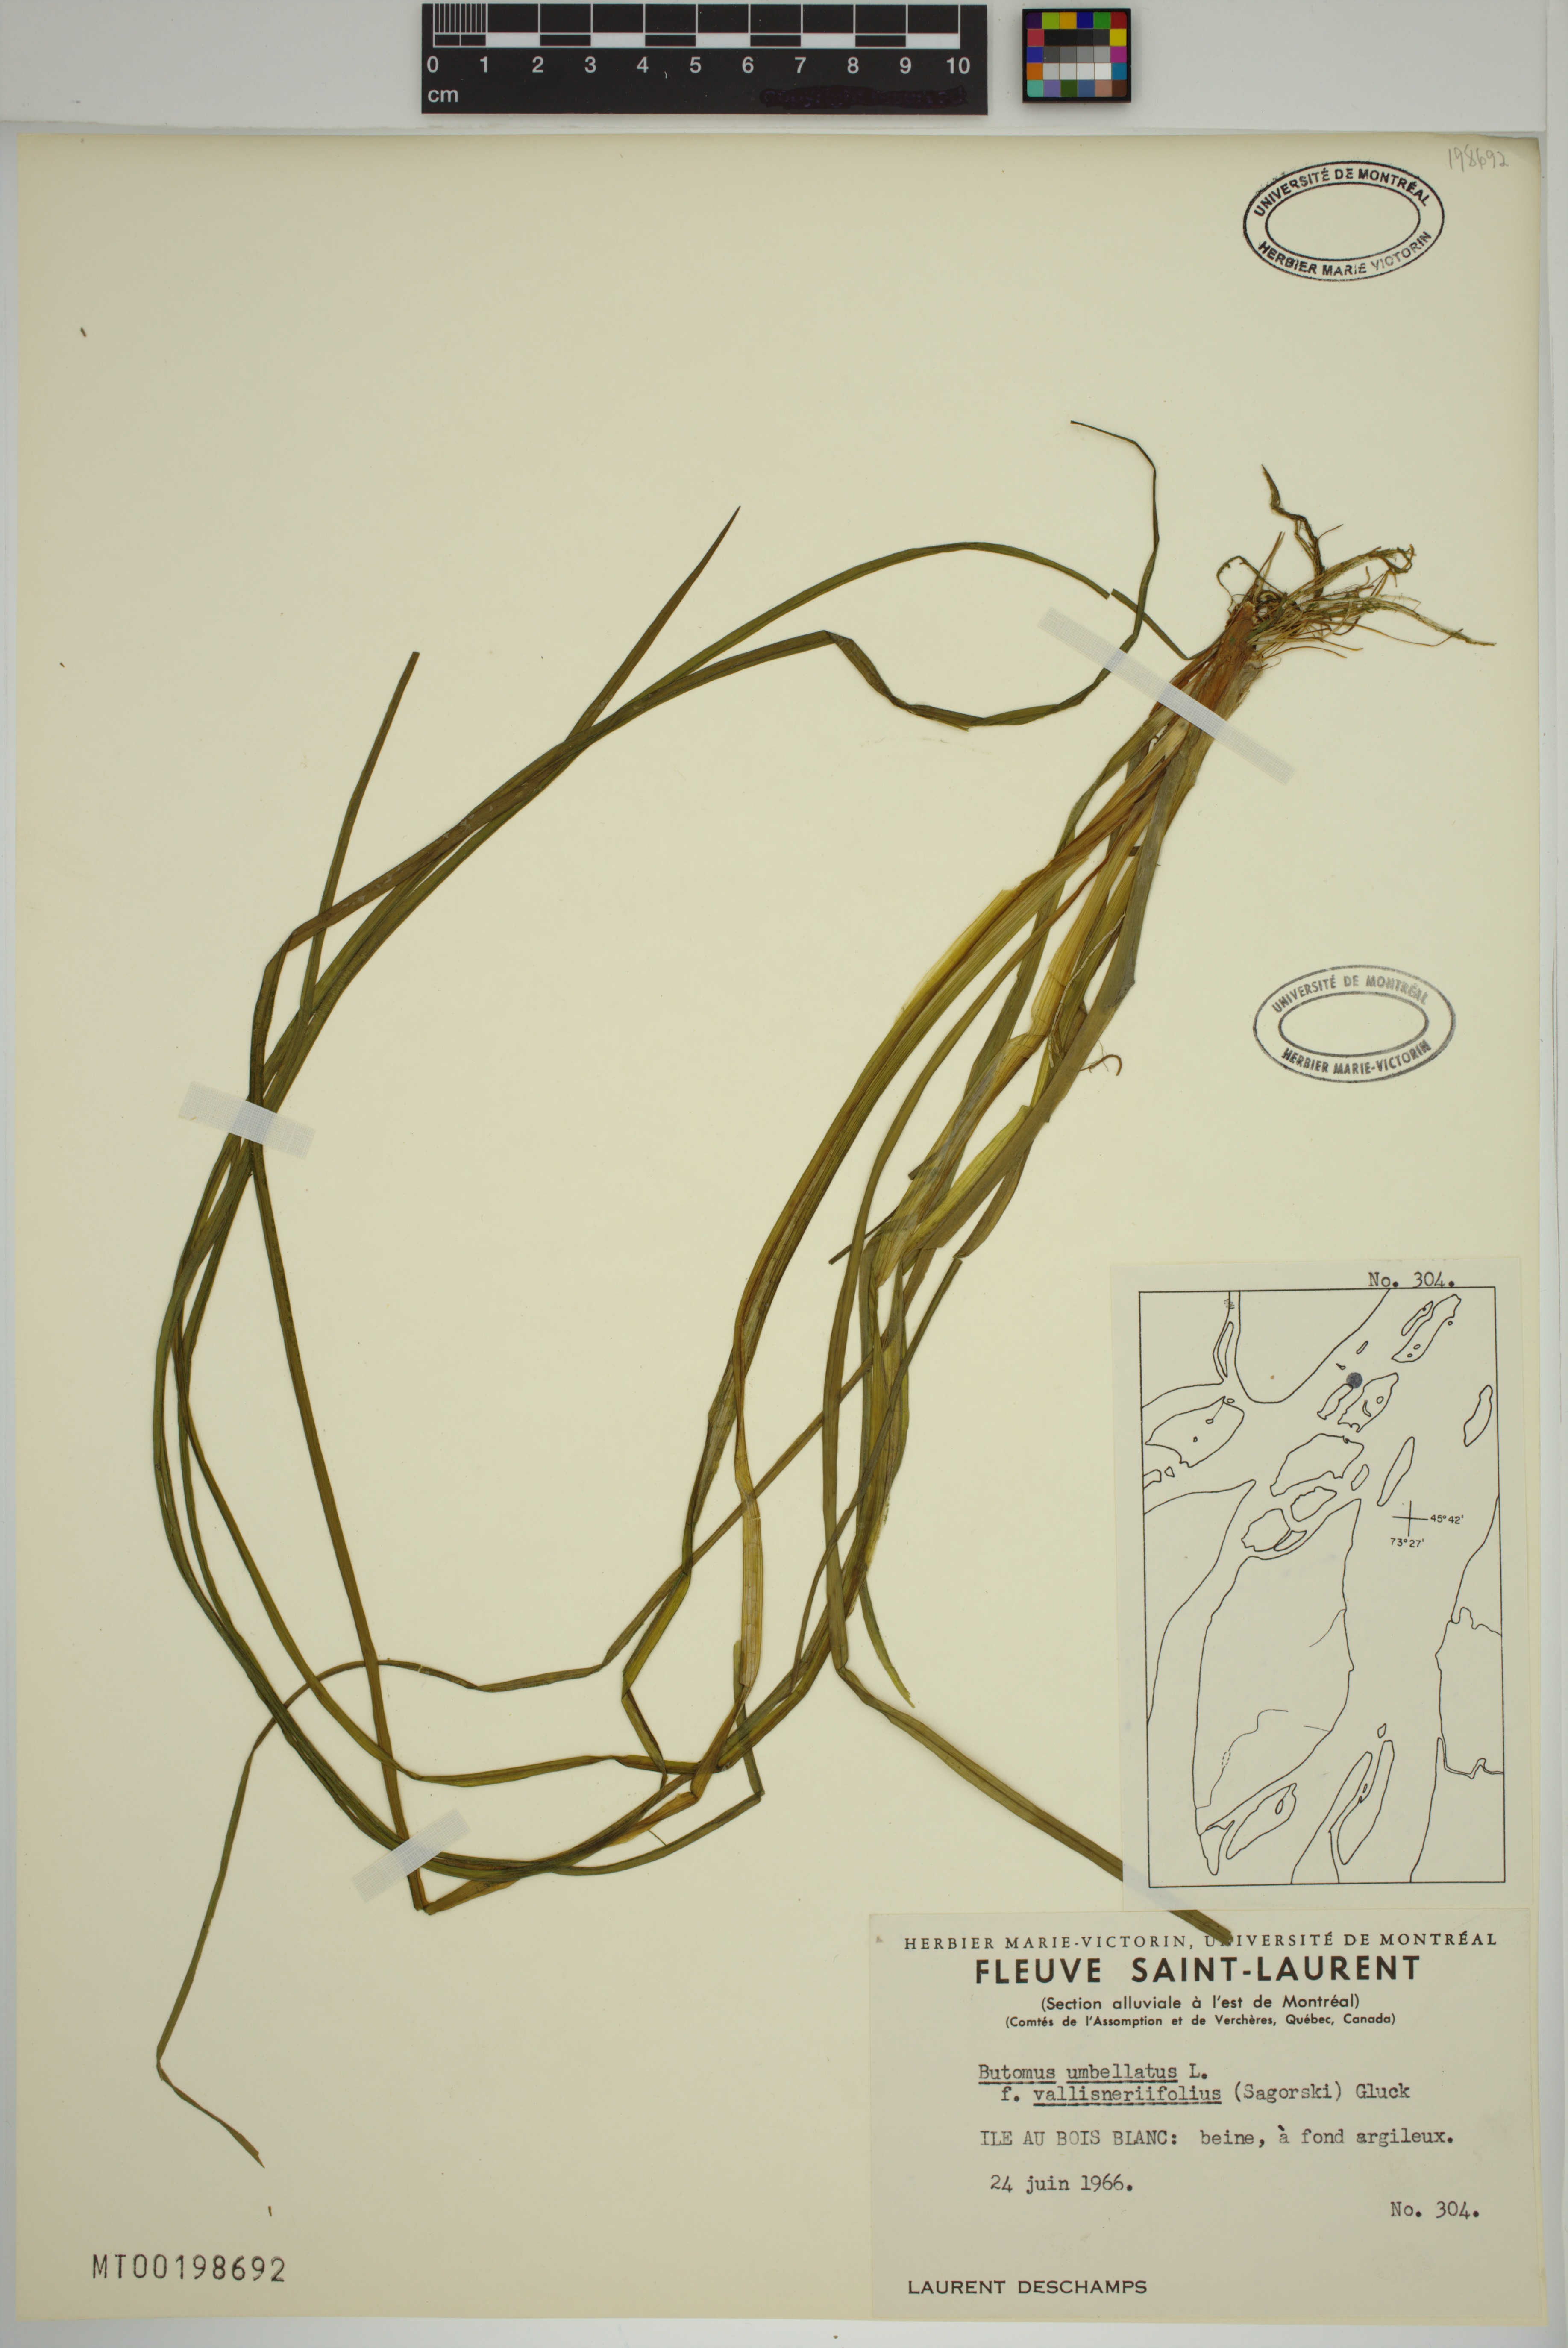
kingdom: Plantae
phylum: Tracheophyta
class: Liliopsida
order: Alismatales
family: Butomaceae
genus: Butomus
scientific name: Butomus umbellatus
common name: Flowering-rush
